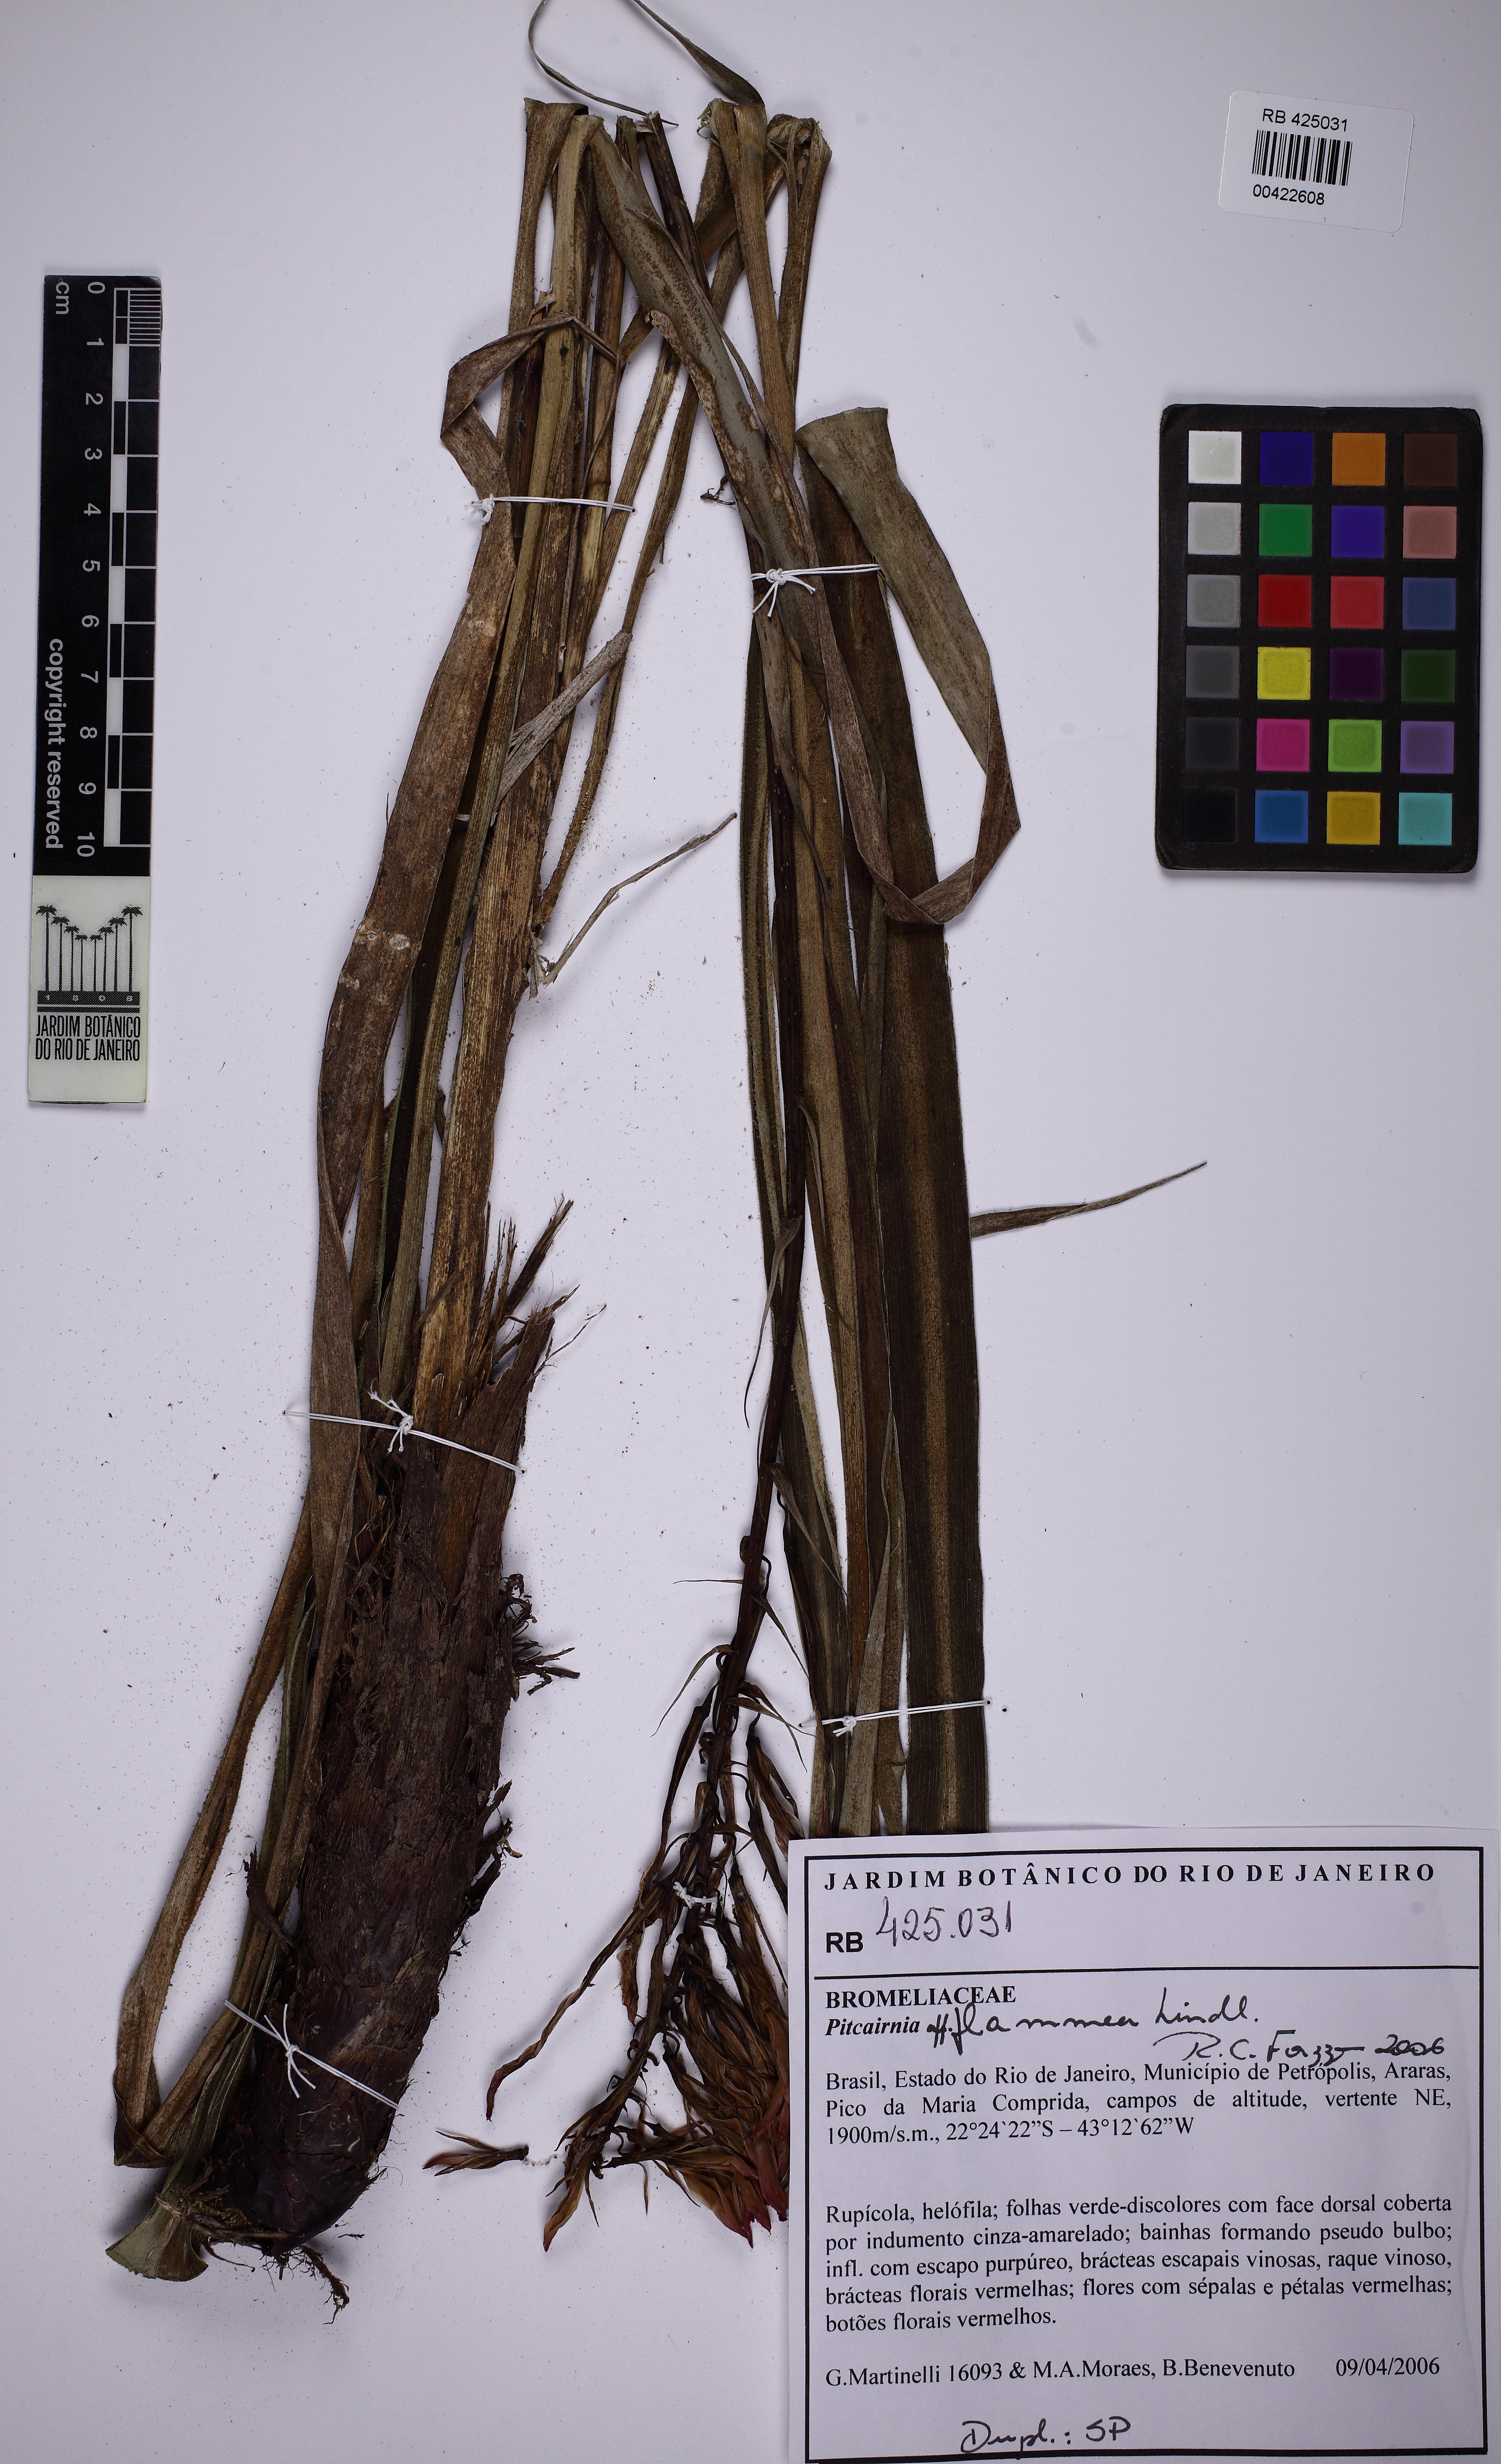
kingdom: Plantae
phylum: Tracheophyta
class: Liliopsida
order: Poales
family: Bromeliaceae
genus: Pitcairnia
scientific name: Pitcairnia flammea
